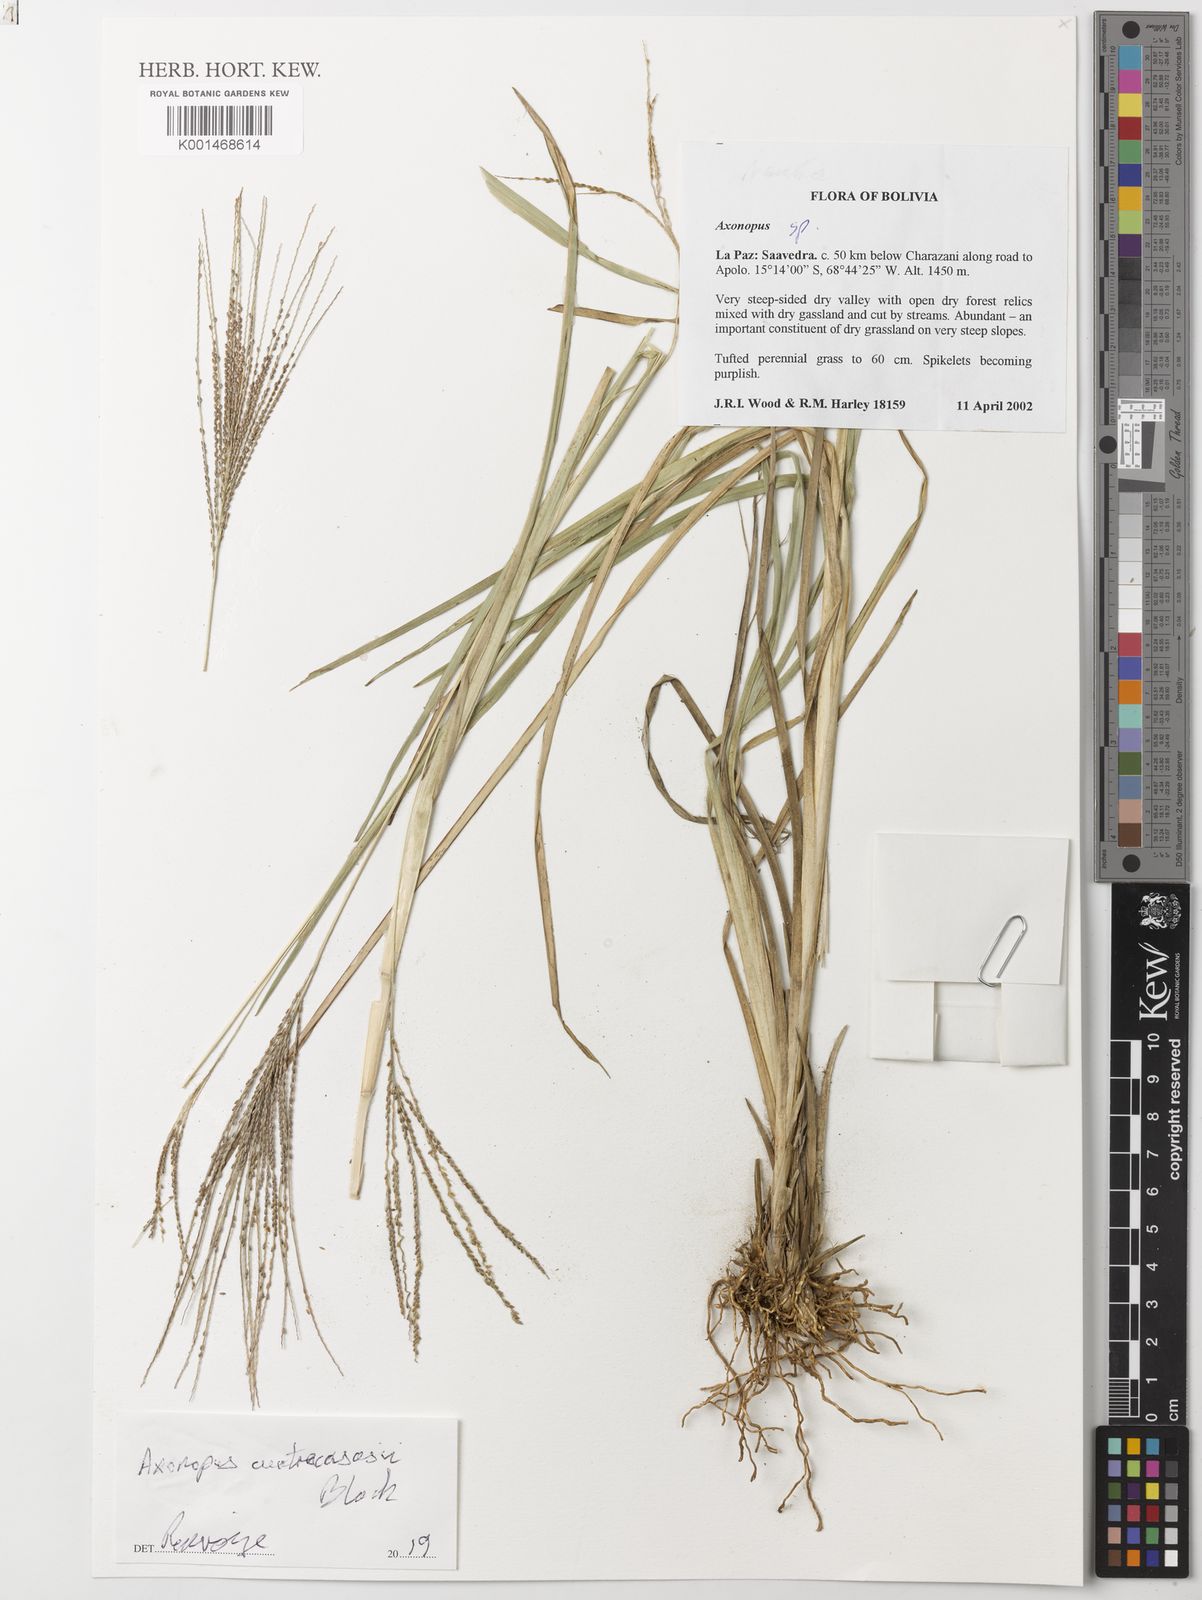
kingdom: Plantae
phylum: Tracheophyta
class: Liliopsida
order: Poales
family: Poaceae
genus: Axonopus
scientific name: Axonopus cuatrecasasii
